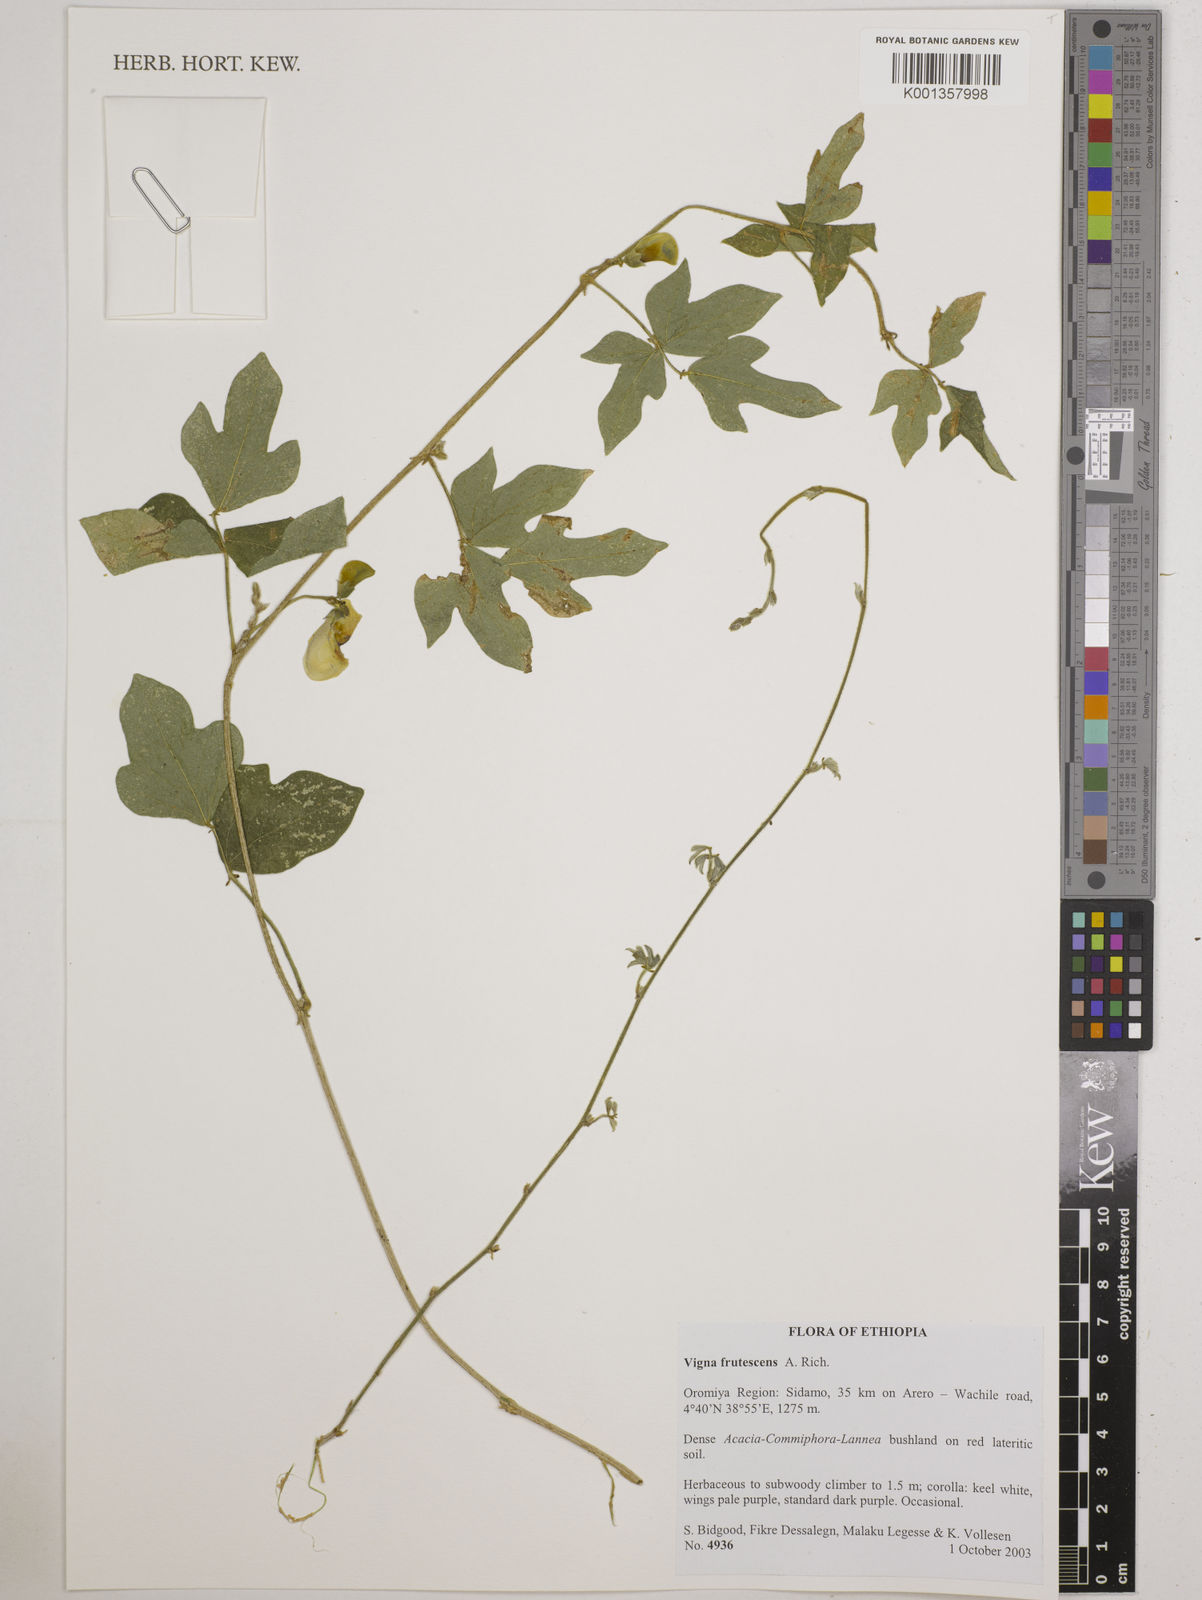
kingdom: Plantae
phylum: Tracheophyta
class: Magnoliopsida
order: Fabales
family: Fabaceae
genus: Vigna
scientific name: Vigna frutescens
